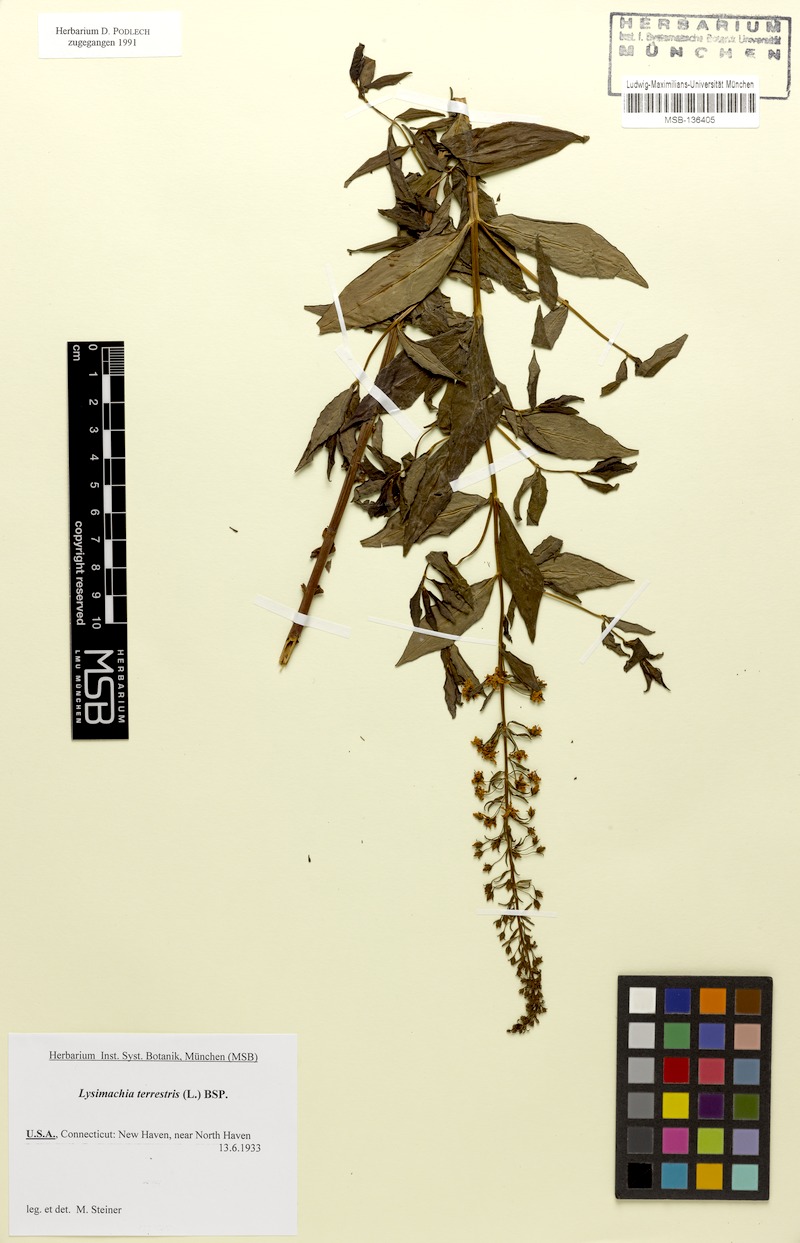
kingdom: Plantae
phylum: Tracheophyta
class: Magnoliopsida
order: Ericales
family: Primulaceae
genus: Lysimachia
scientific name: Lysimachia terrestris
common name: Lake loosestrife
